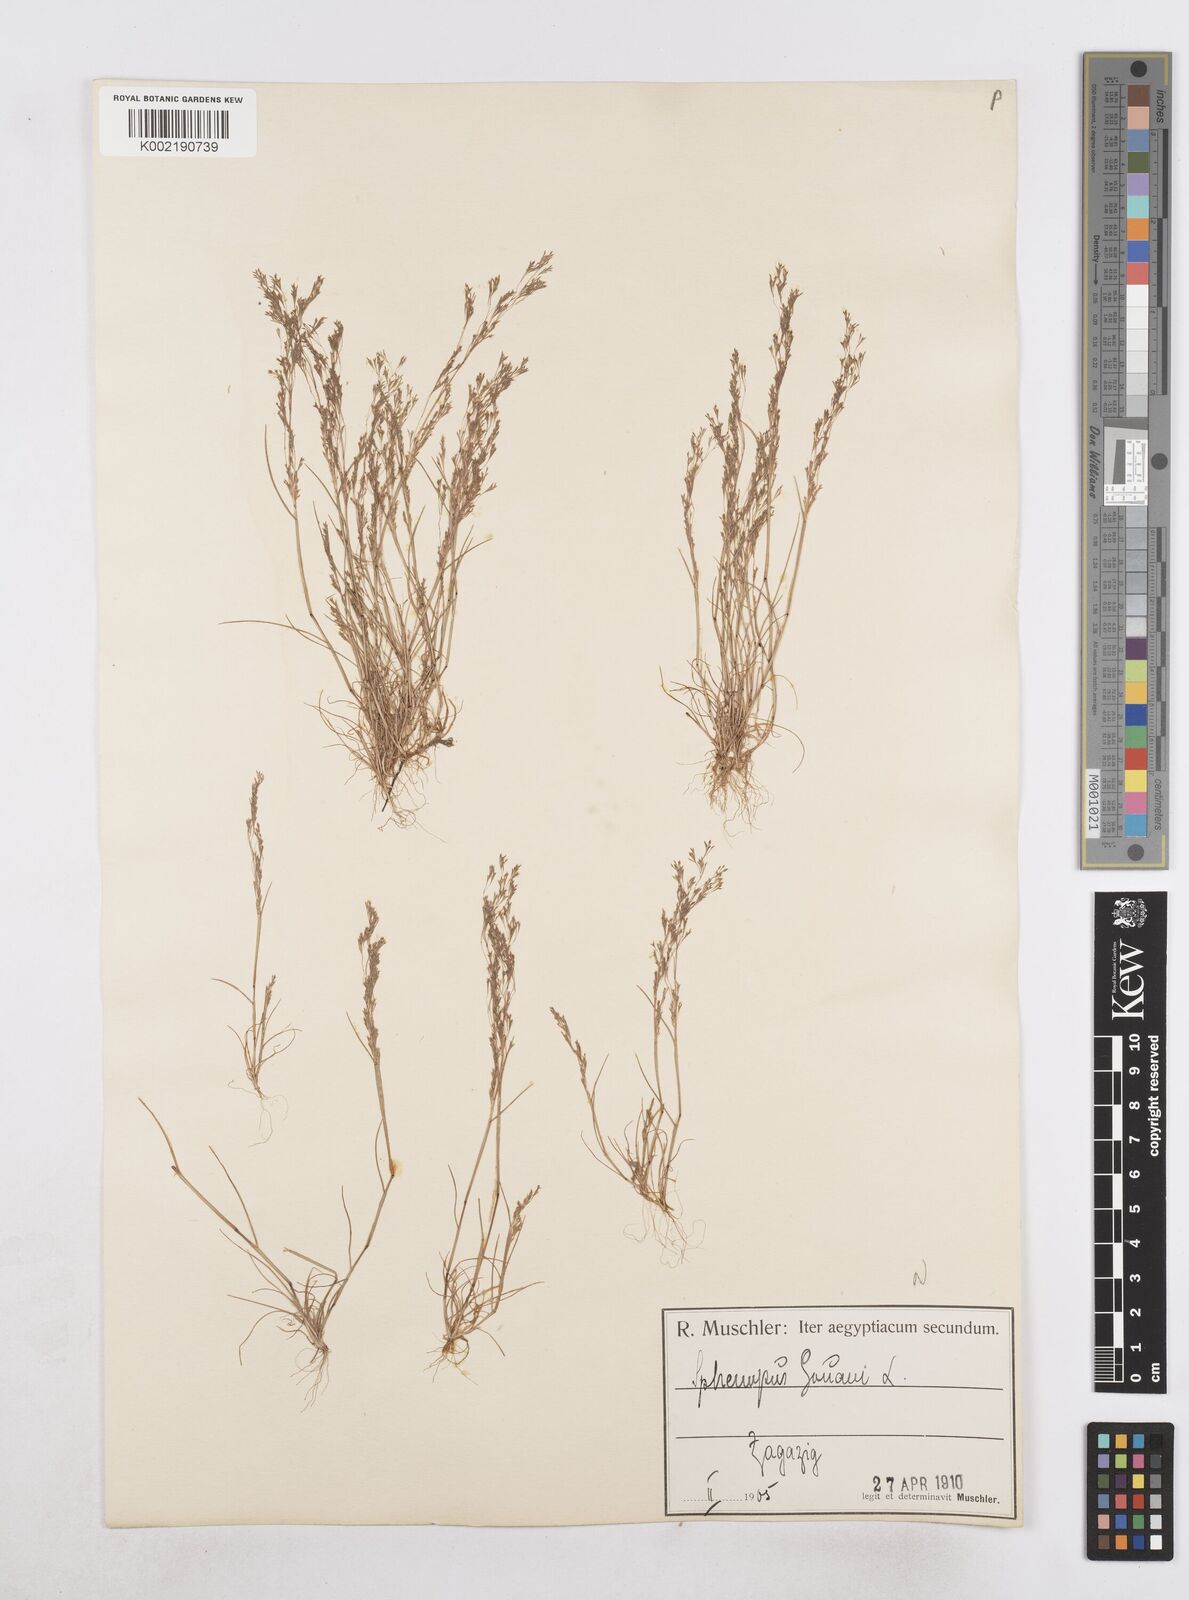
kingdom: Plantae
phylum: Tracheophyta
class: Liliopsida
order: Poales
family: Poaceae
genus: Sphenopus
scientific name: Sphenopus divaricatus
